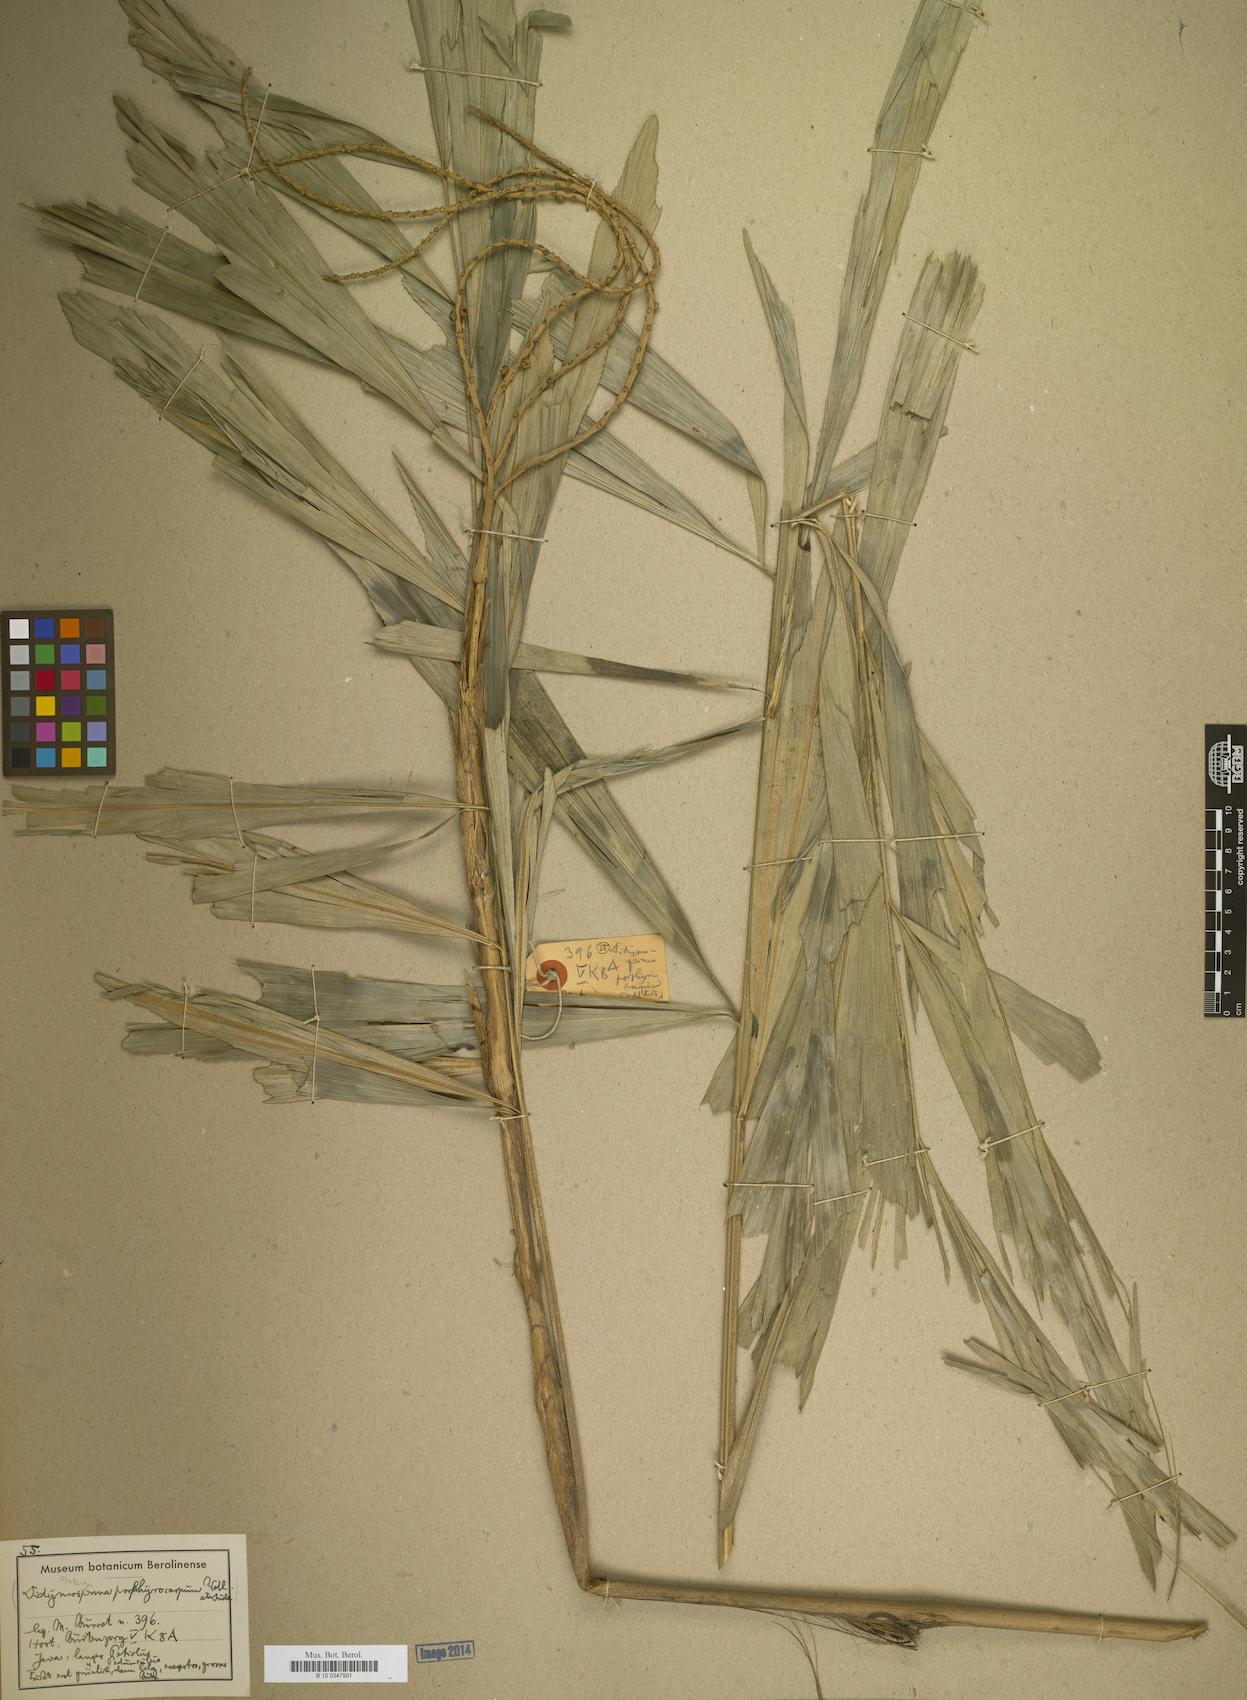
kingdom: Plantae
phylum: Tracheophyta
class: Liliopsida
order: Arecales
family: Arecaceae
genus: Didymosperma
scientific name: Didymosperma
